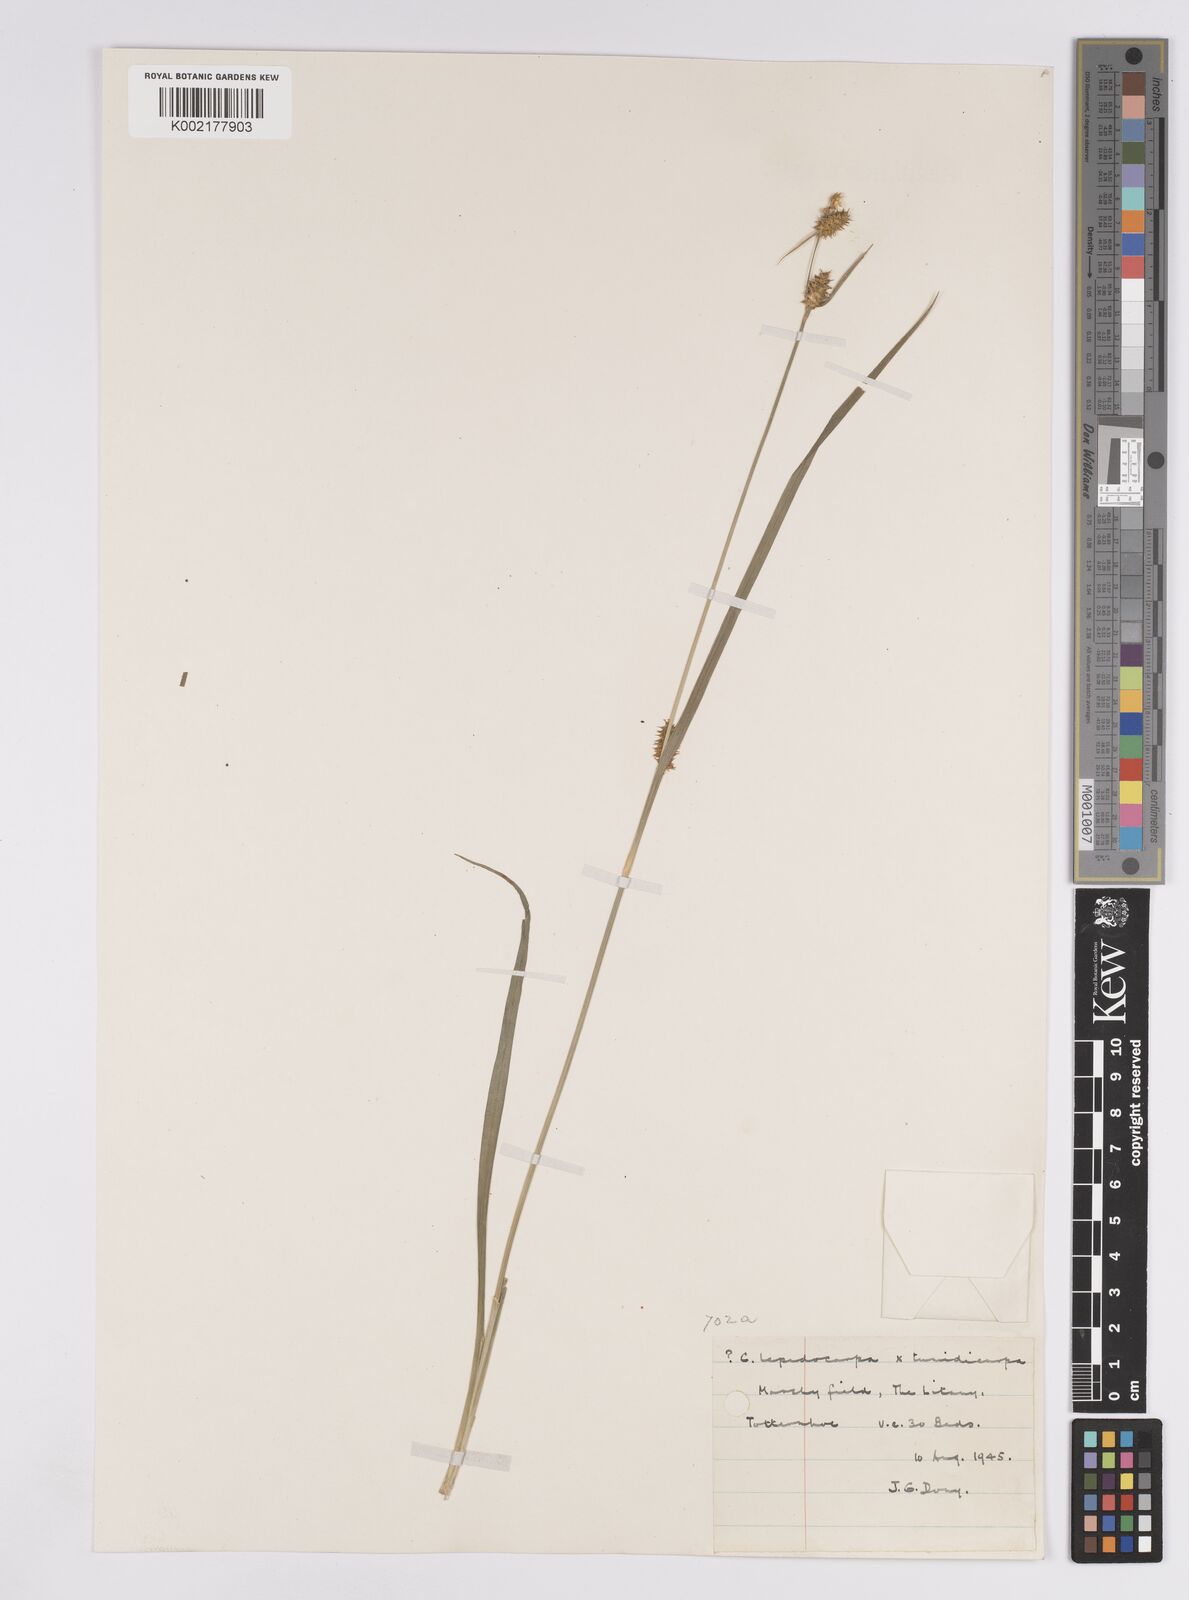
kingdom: Plantae
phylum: Tracheophyta
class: Liliopsida
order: Poales
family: Cyperaceae
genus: Carex
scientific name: Carex demissa
